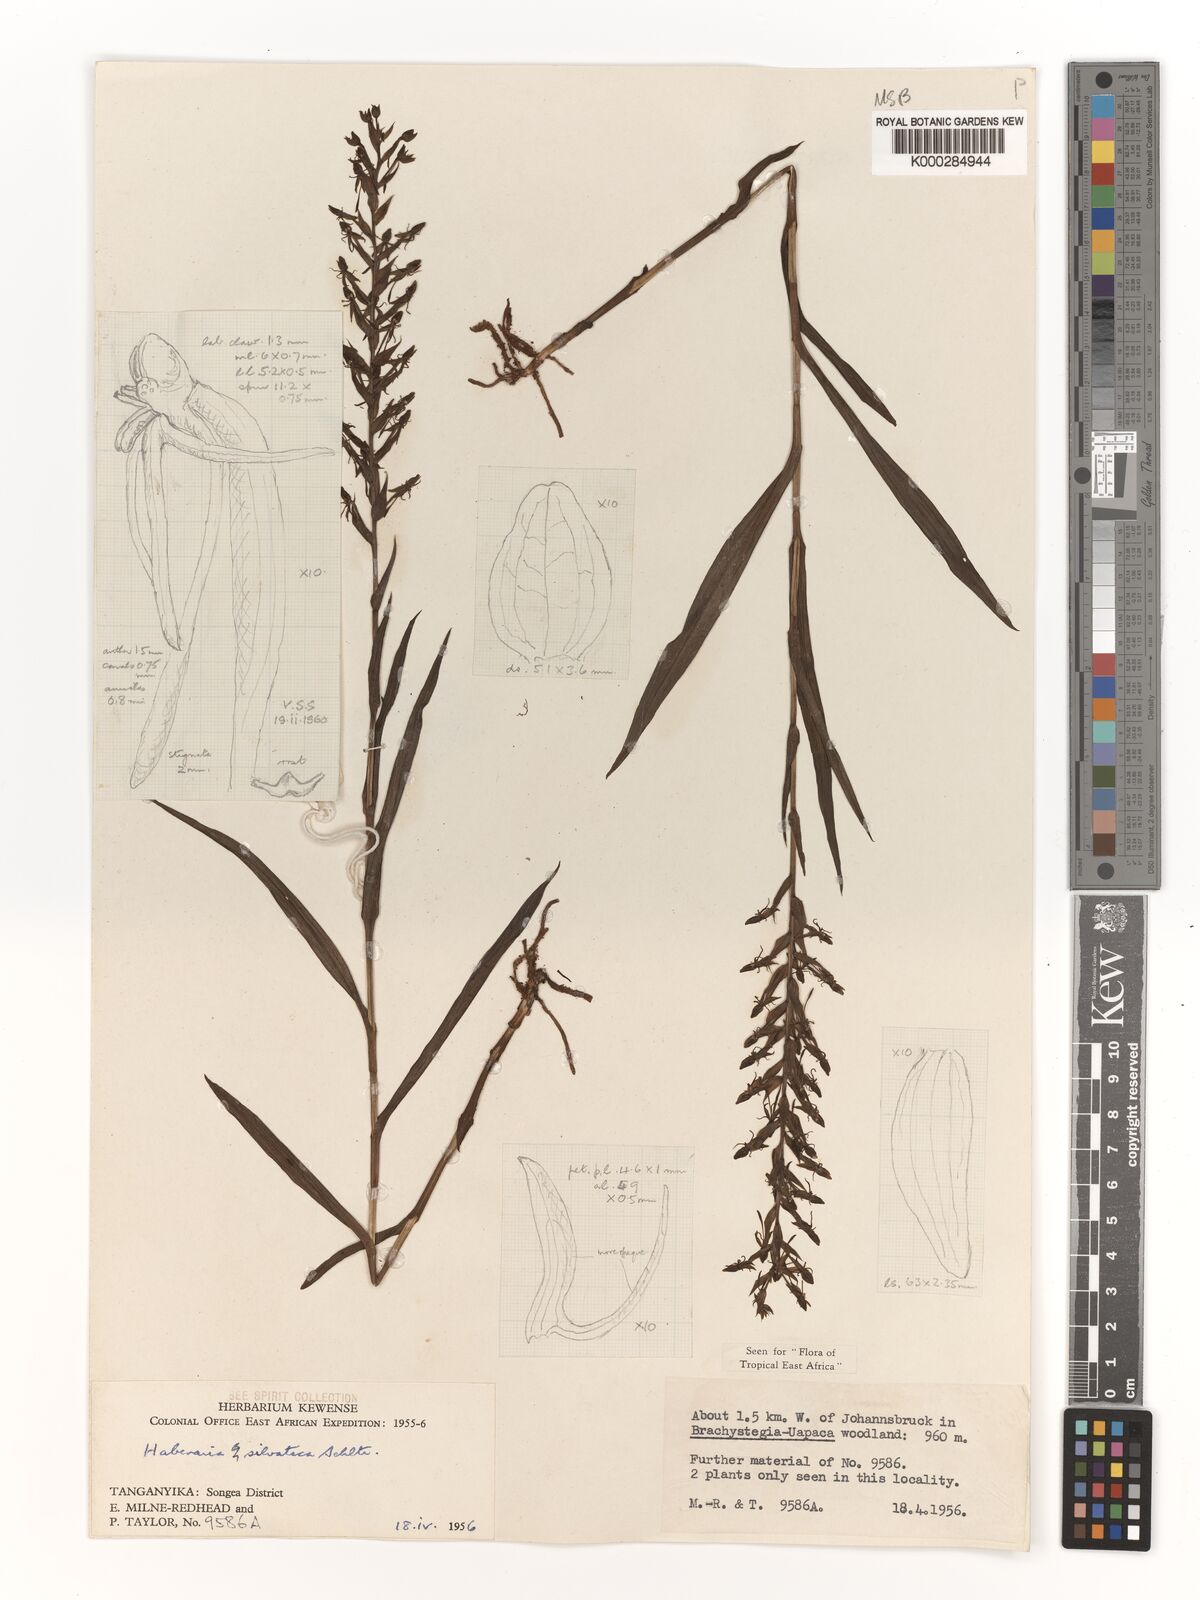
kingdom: Plantae
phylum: Tracheophyta
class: Liliopsida
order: Asparagales
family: Orchidaceae
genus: Habenaria
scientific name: Habenaria silvatica
